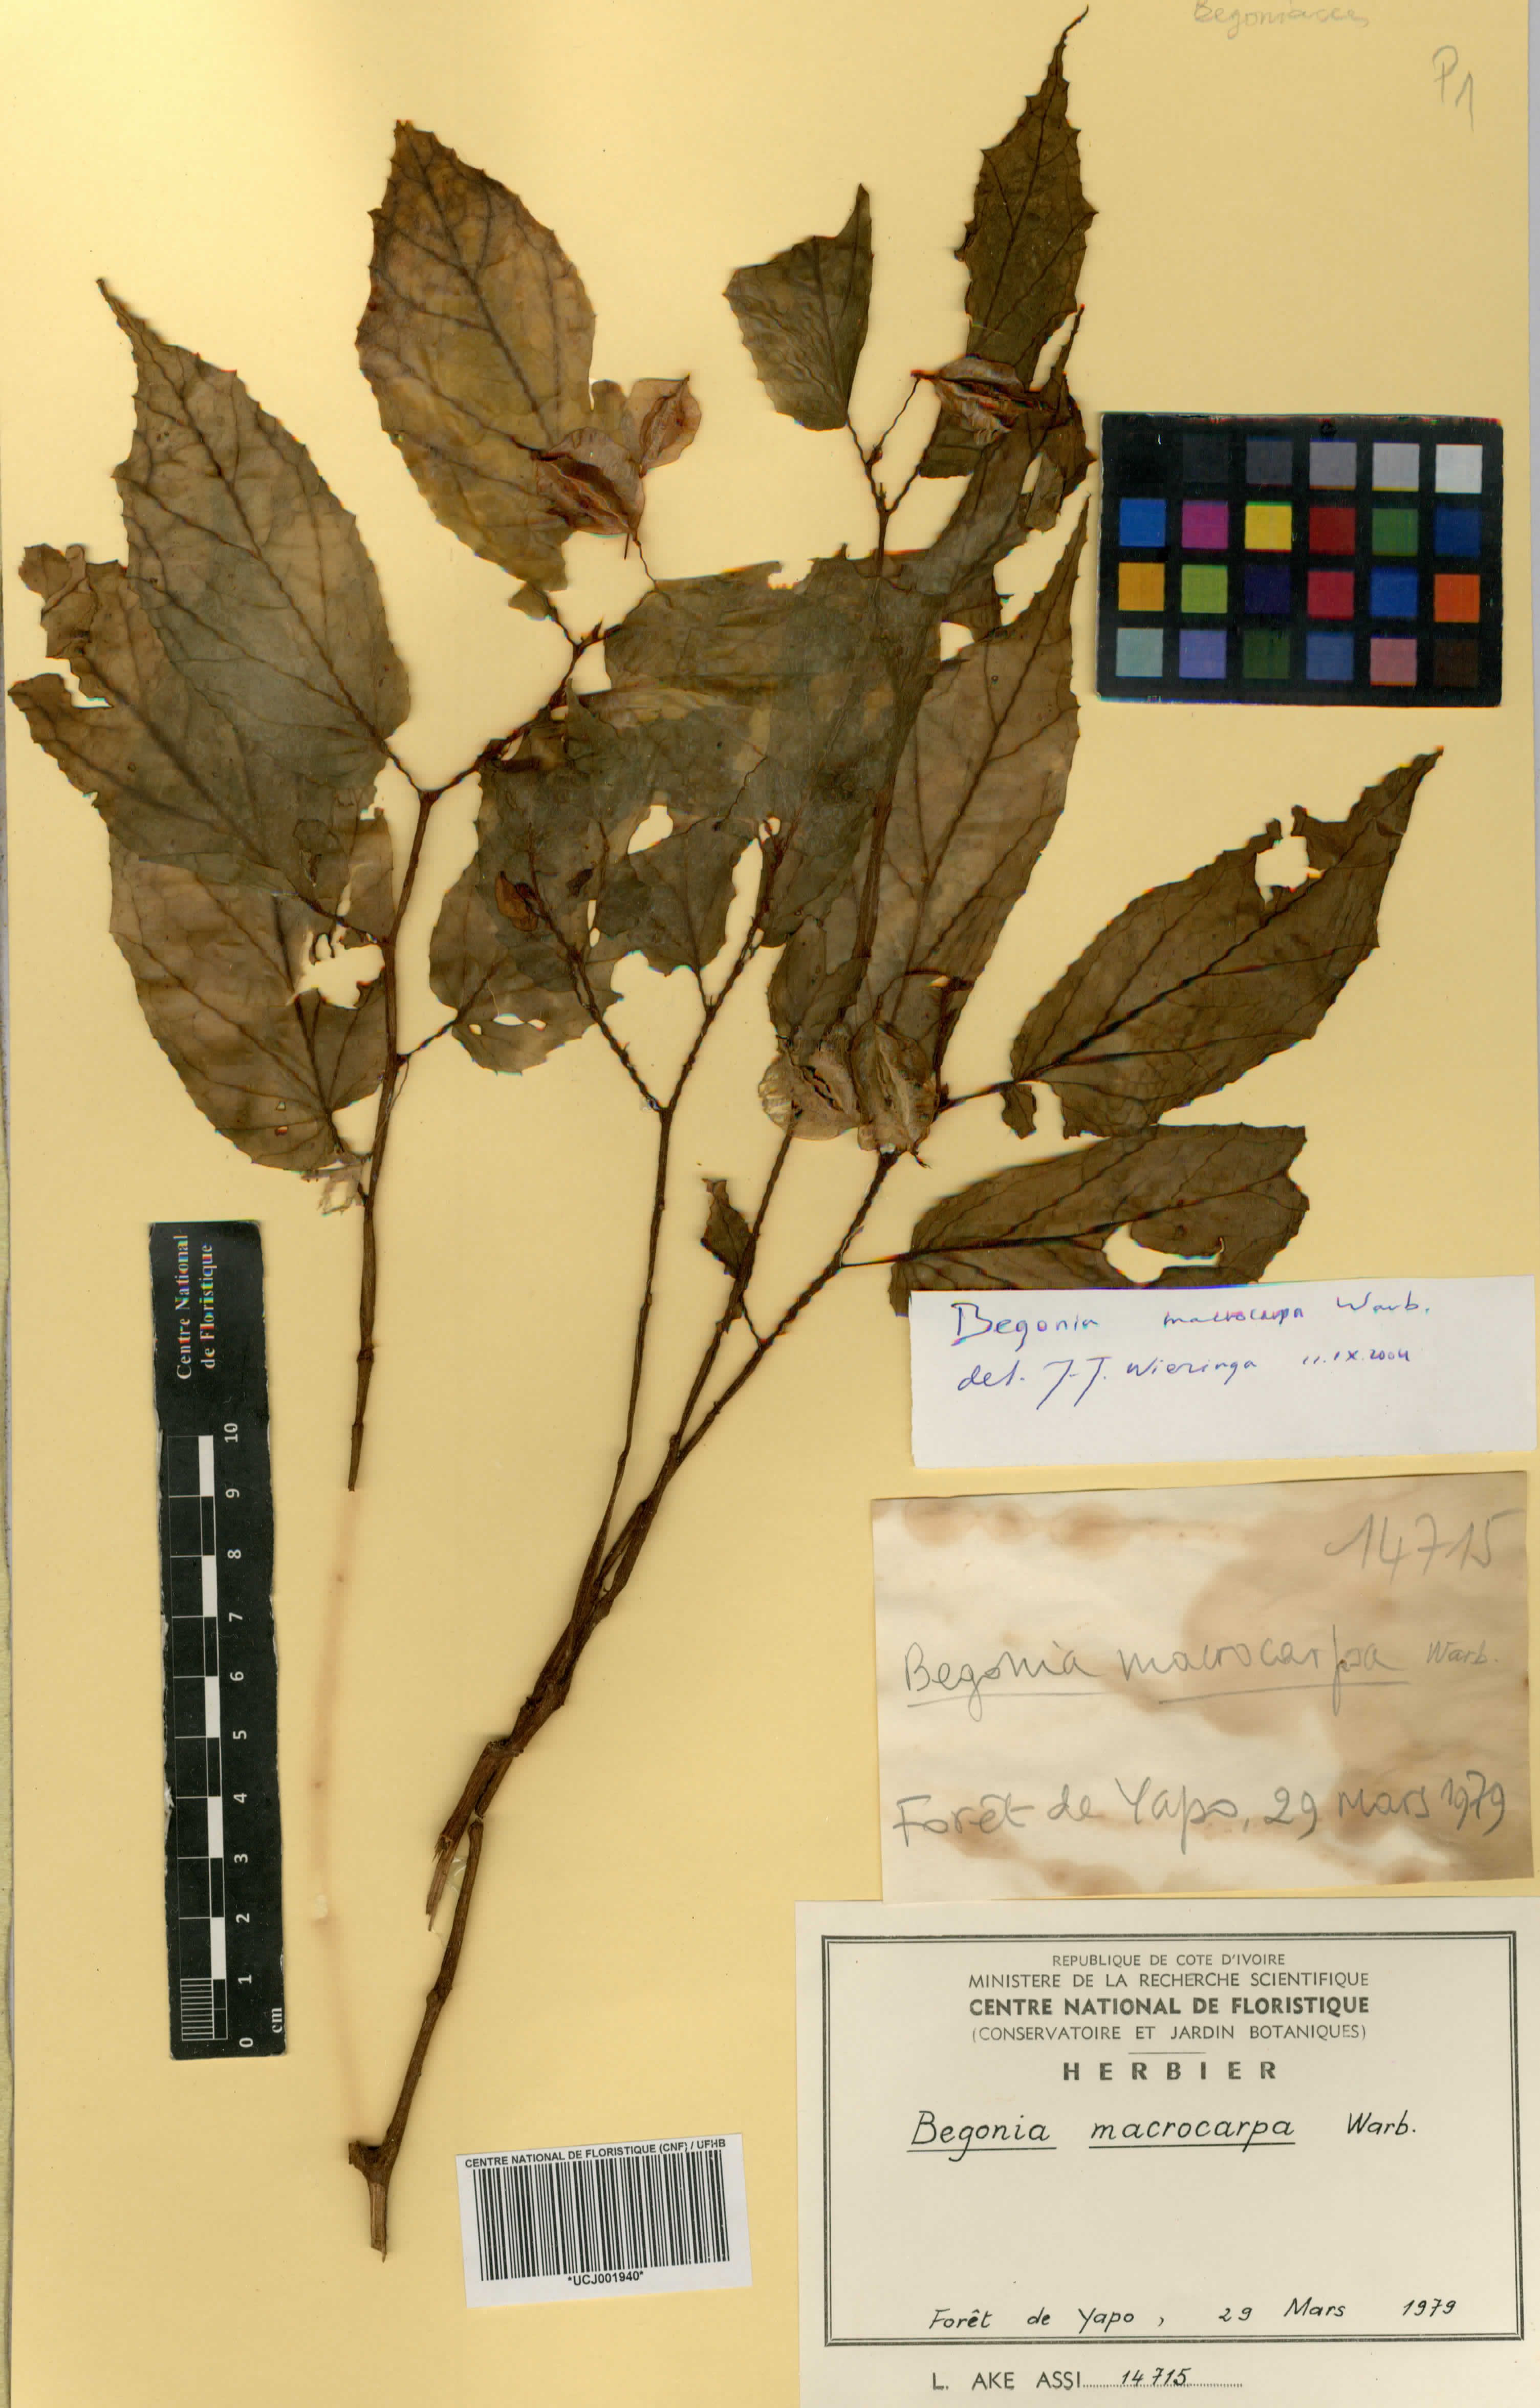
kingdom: Plantae
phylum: Tracheophyta
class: Magnoliopsida
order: Cucurbitales
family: Begoniaceae
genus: Begonia
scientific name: Begonia macrocarpa
